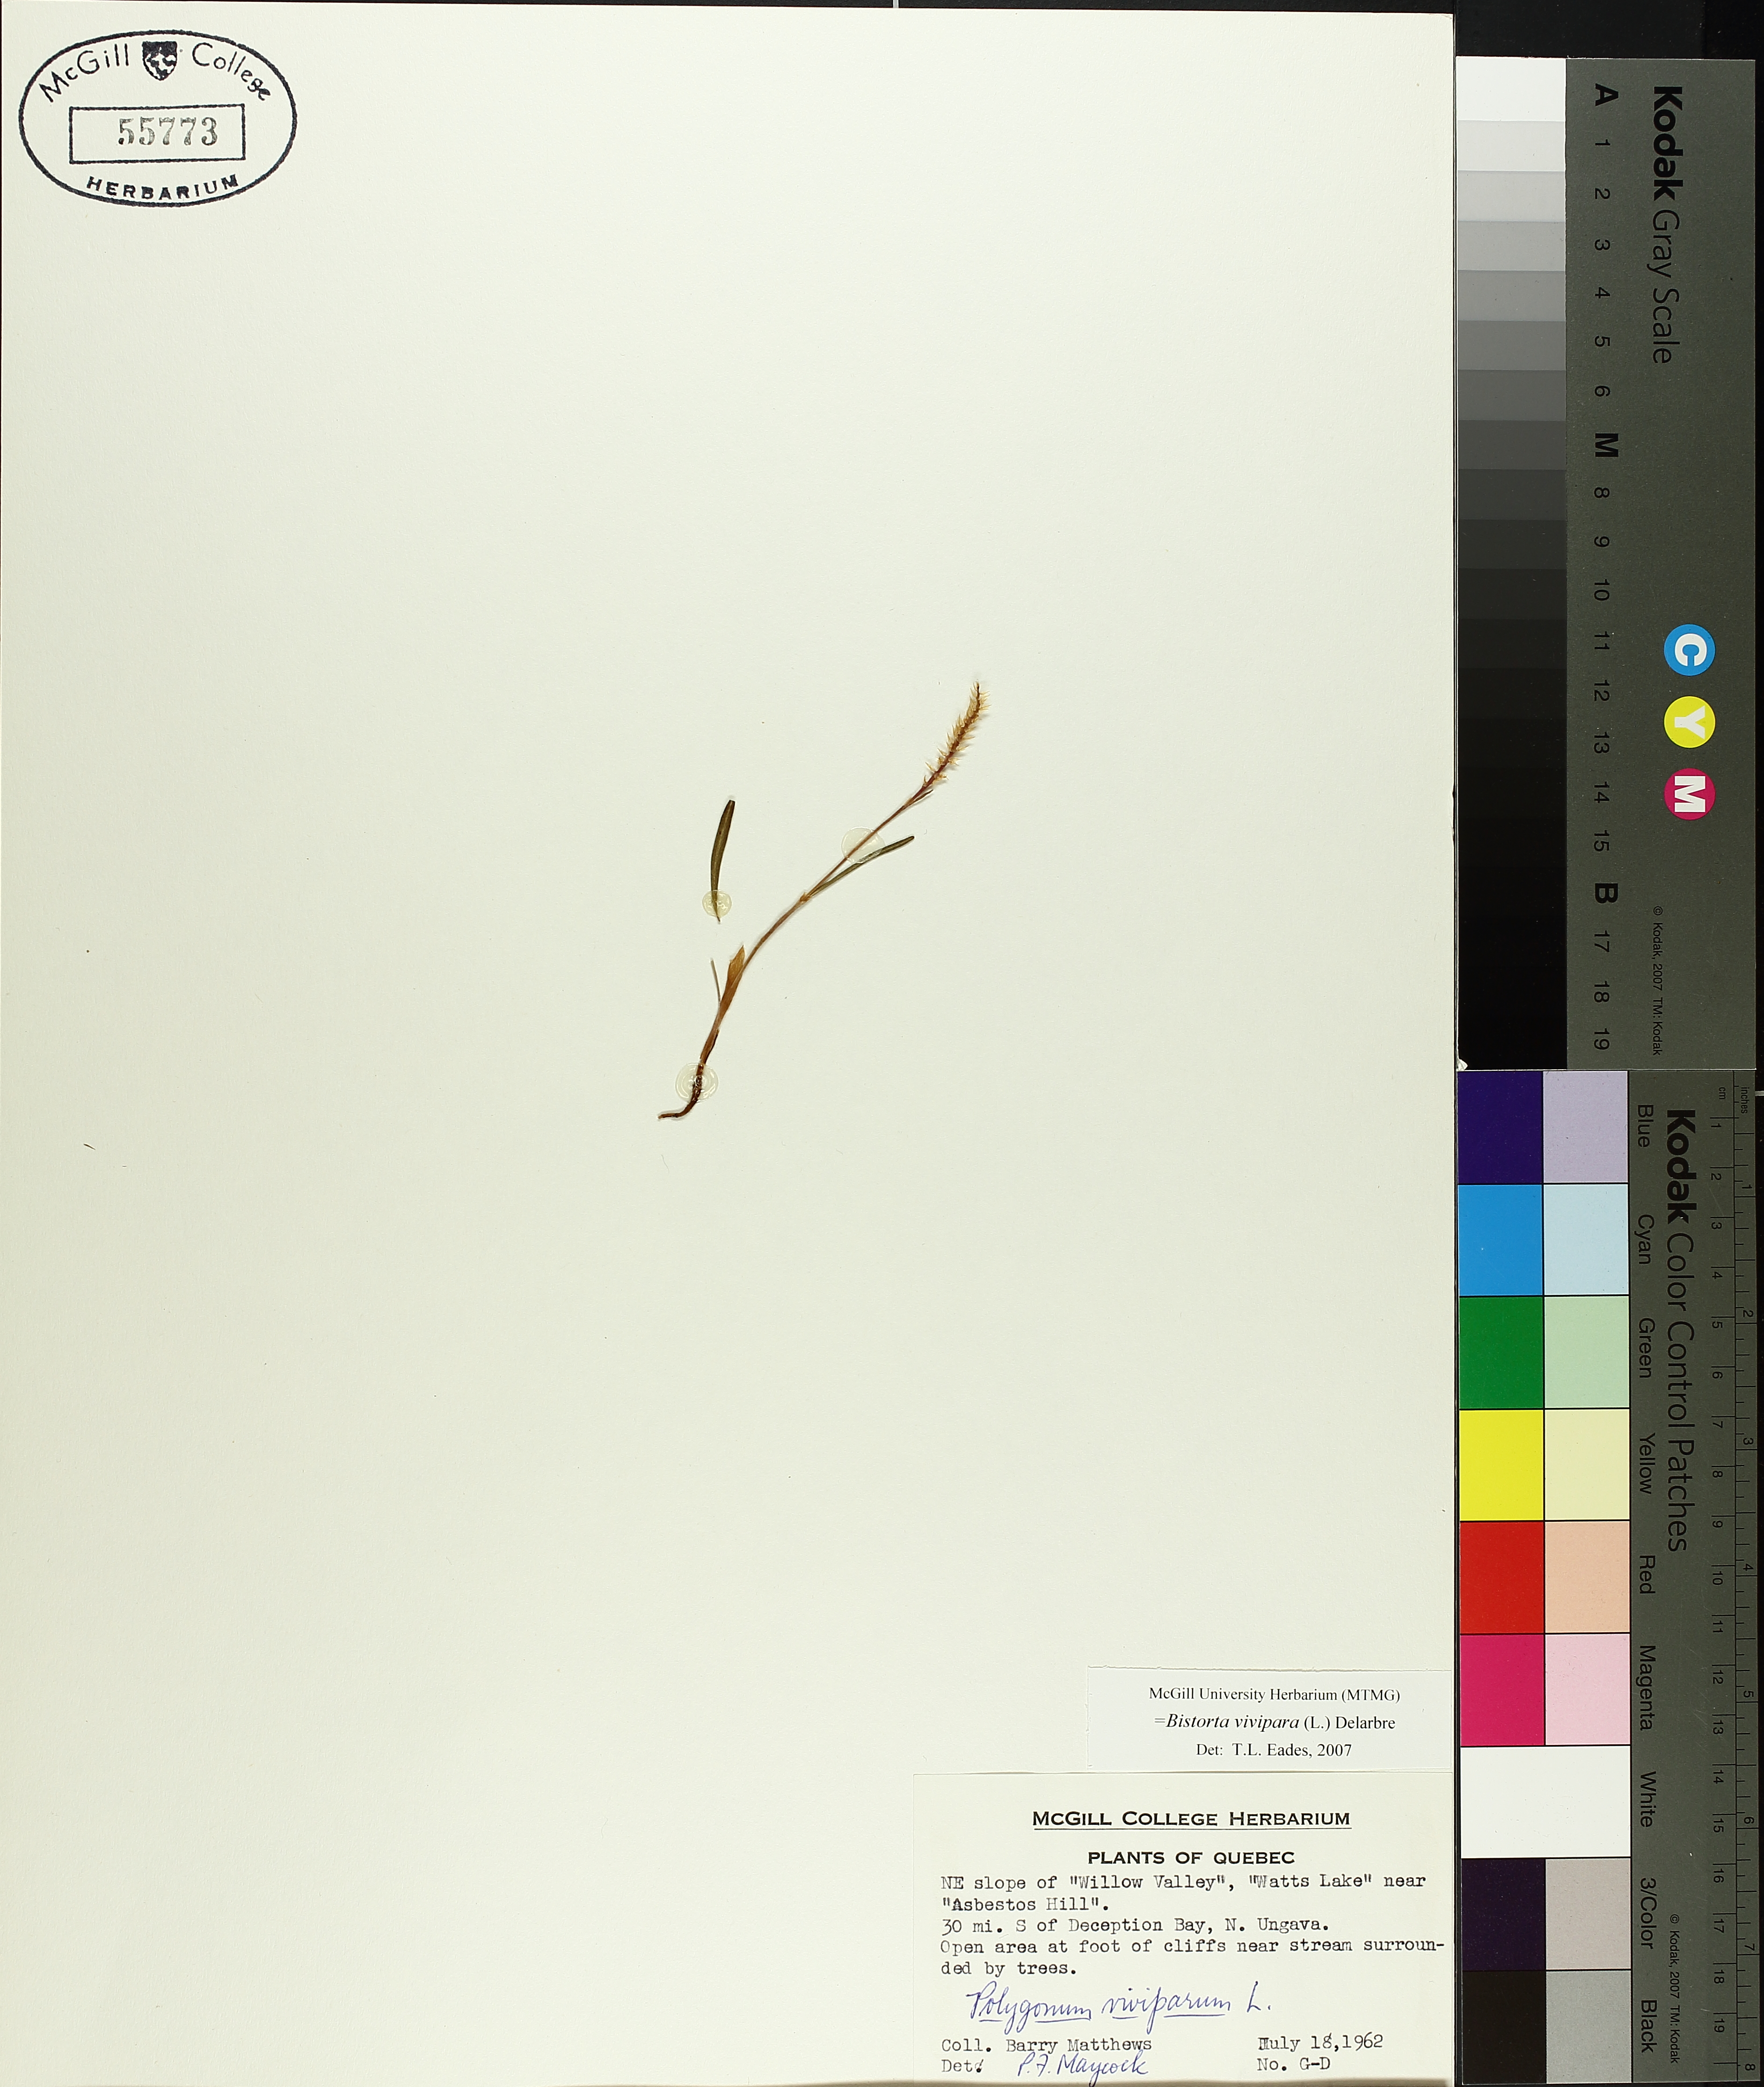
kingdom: Plantae
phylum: Tracheophyta
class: Magnoliopsida
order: Caryophyllales
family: Polygonaceae
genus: Bistorta
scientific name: Bistorta vivipara
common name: Alpine bistort
